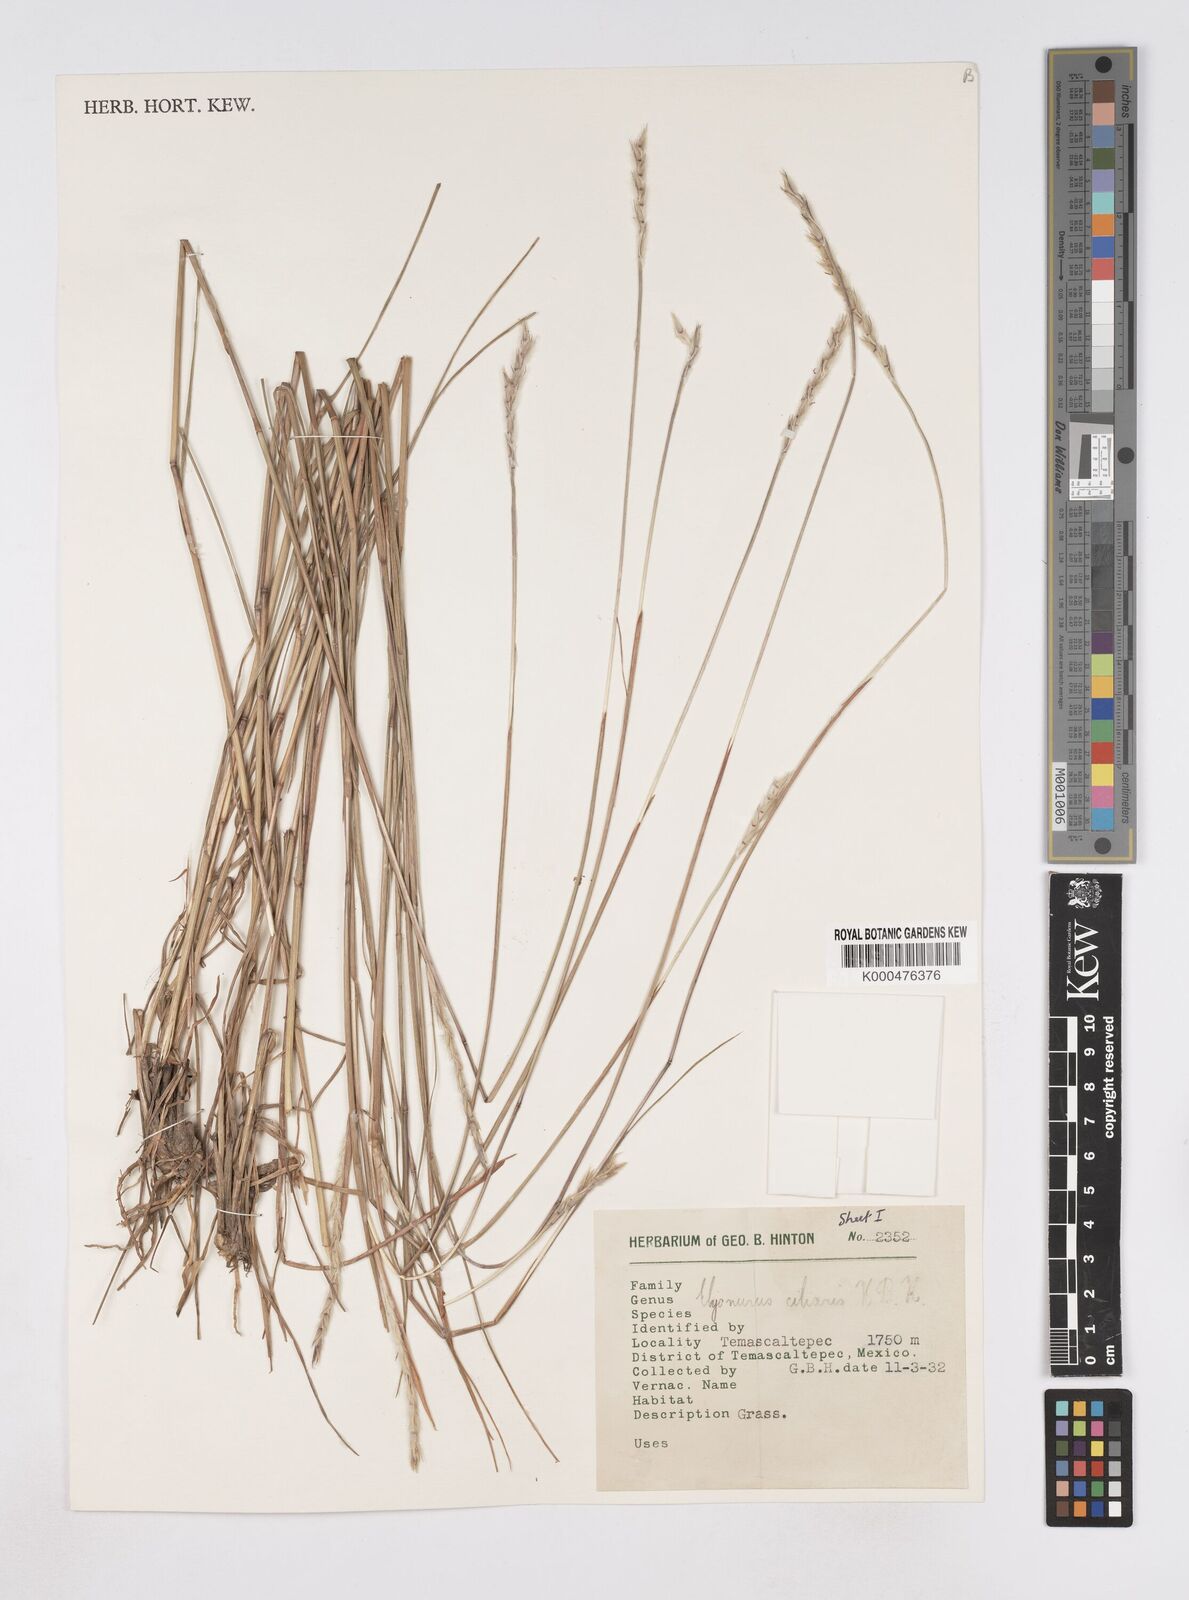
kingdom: Plantae
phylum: Tracheophyta
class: Liliopsida
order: Poales
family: Poaceae
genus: Elionurus
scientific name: Elionurus ciliaris
